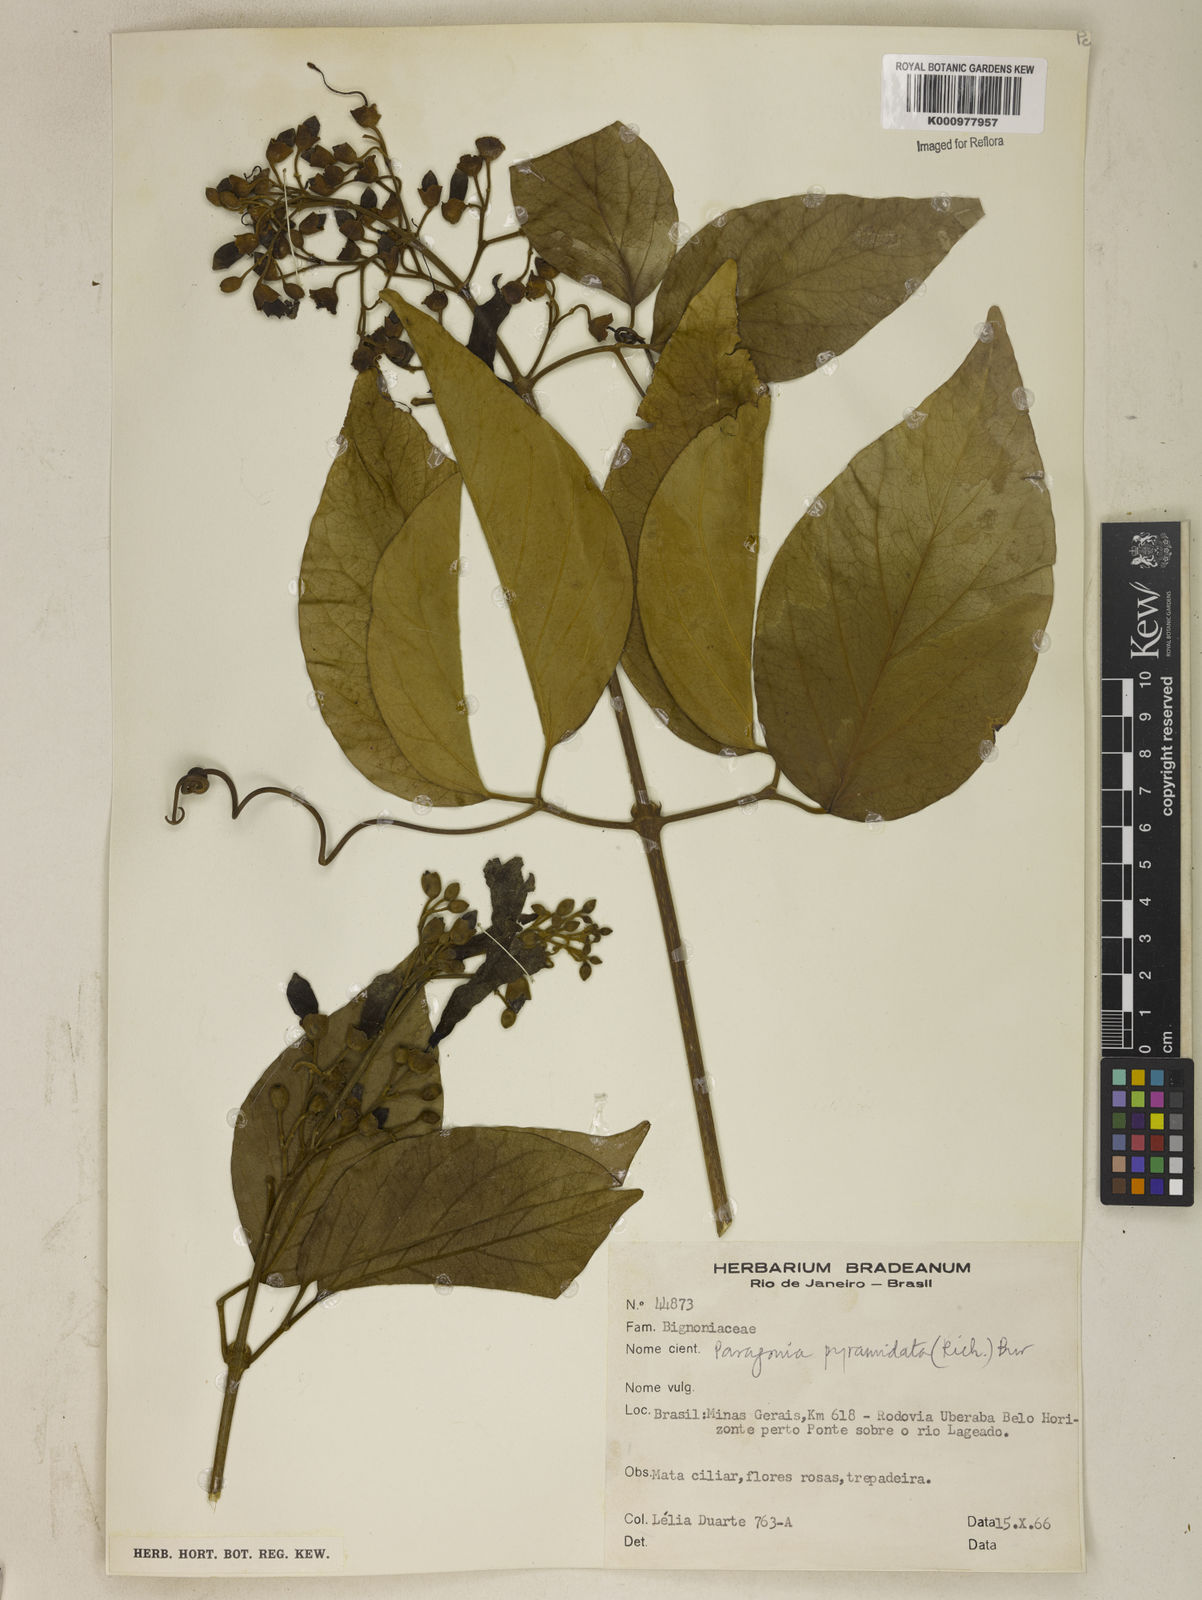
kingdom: Plantae
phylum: Tracheophyta
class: Magnoliopsida
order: Lamiales
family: Bignoniaceae
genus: Tanaecium
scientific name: Tanaecium pyramidatum
